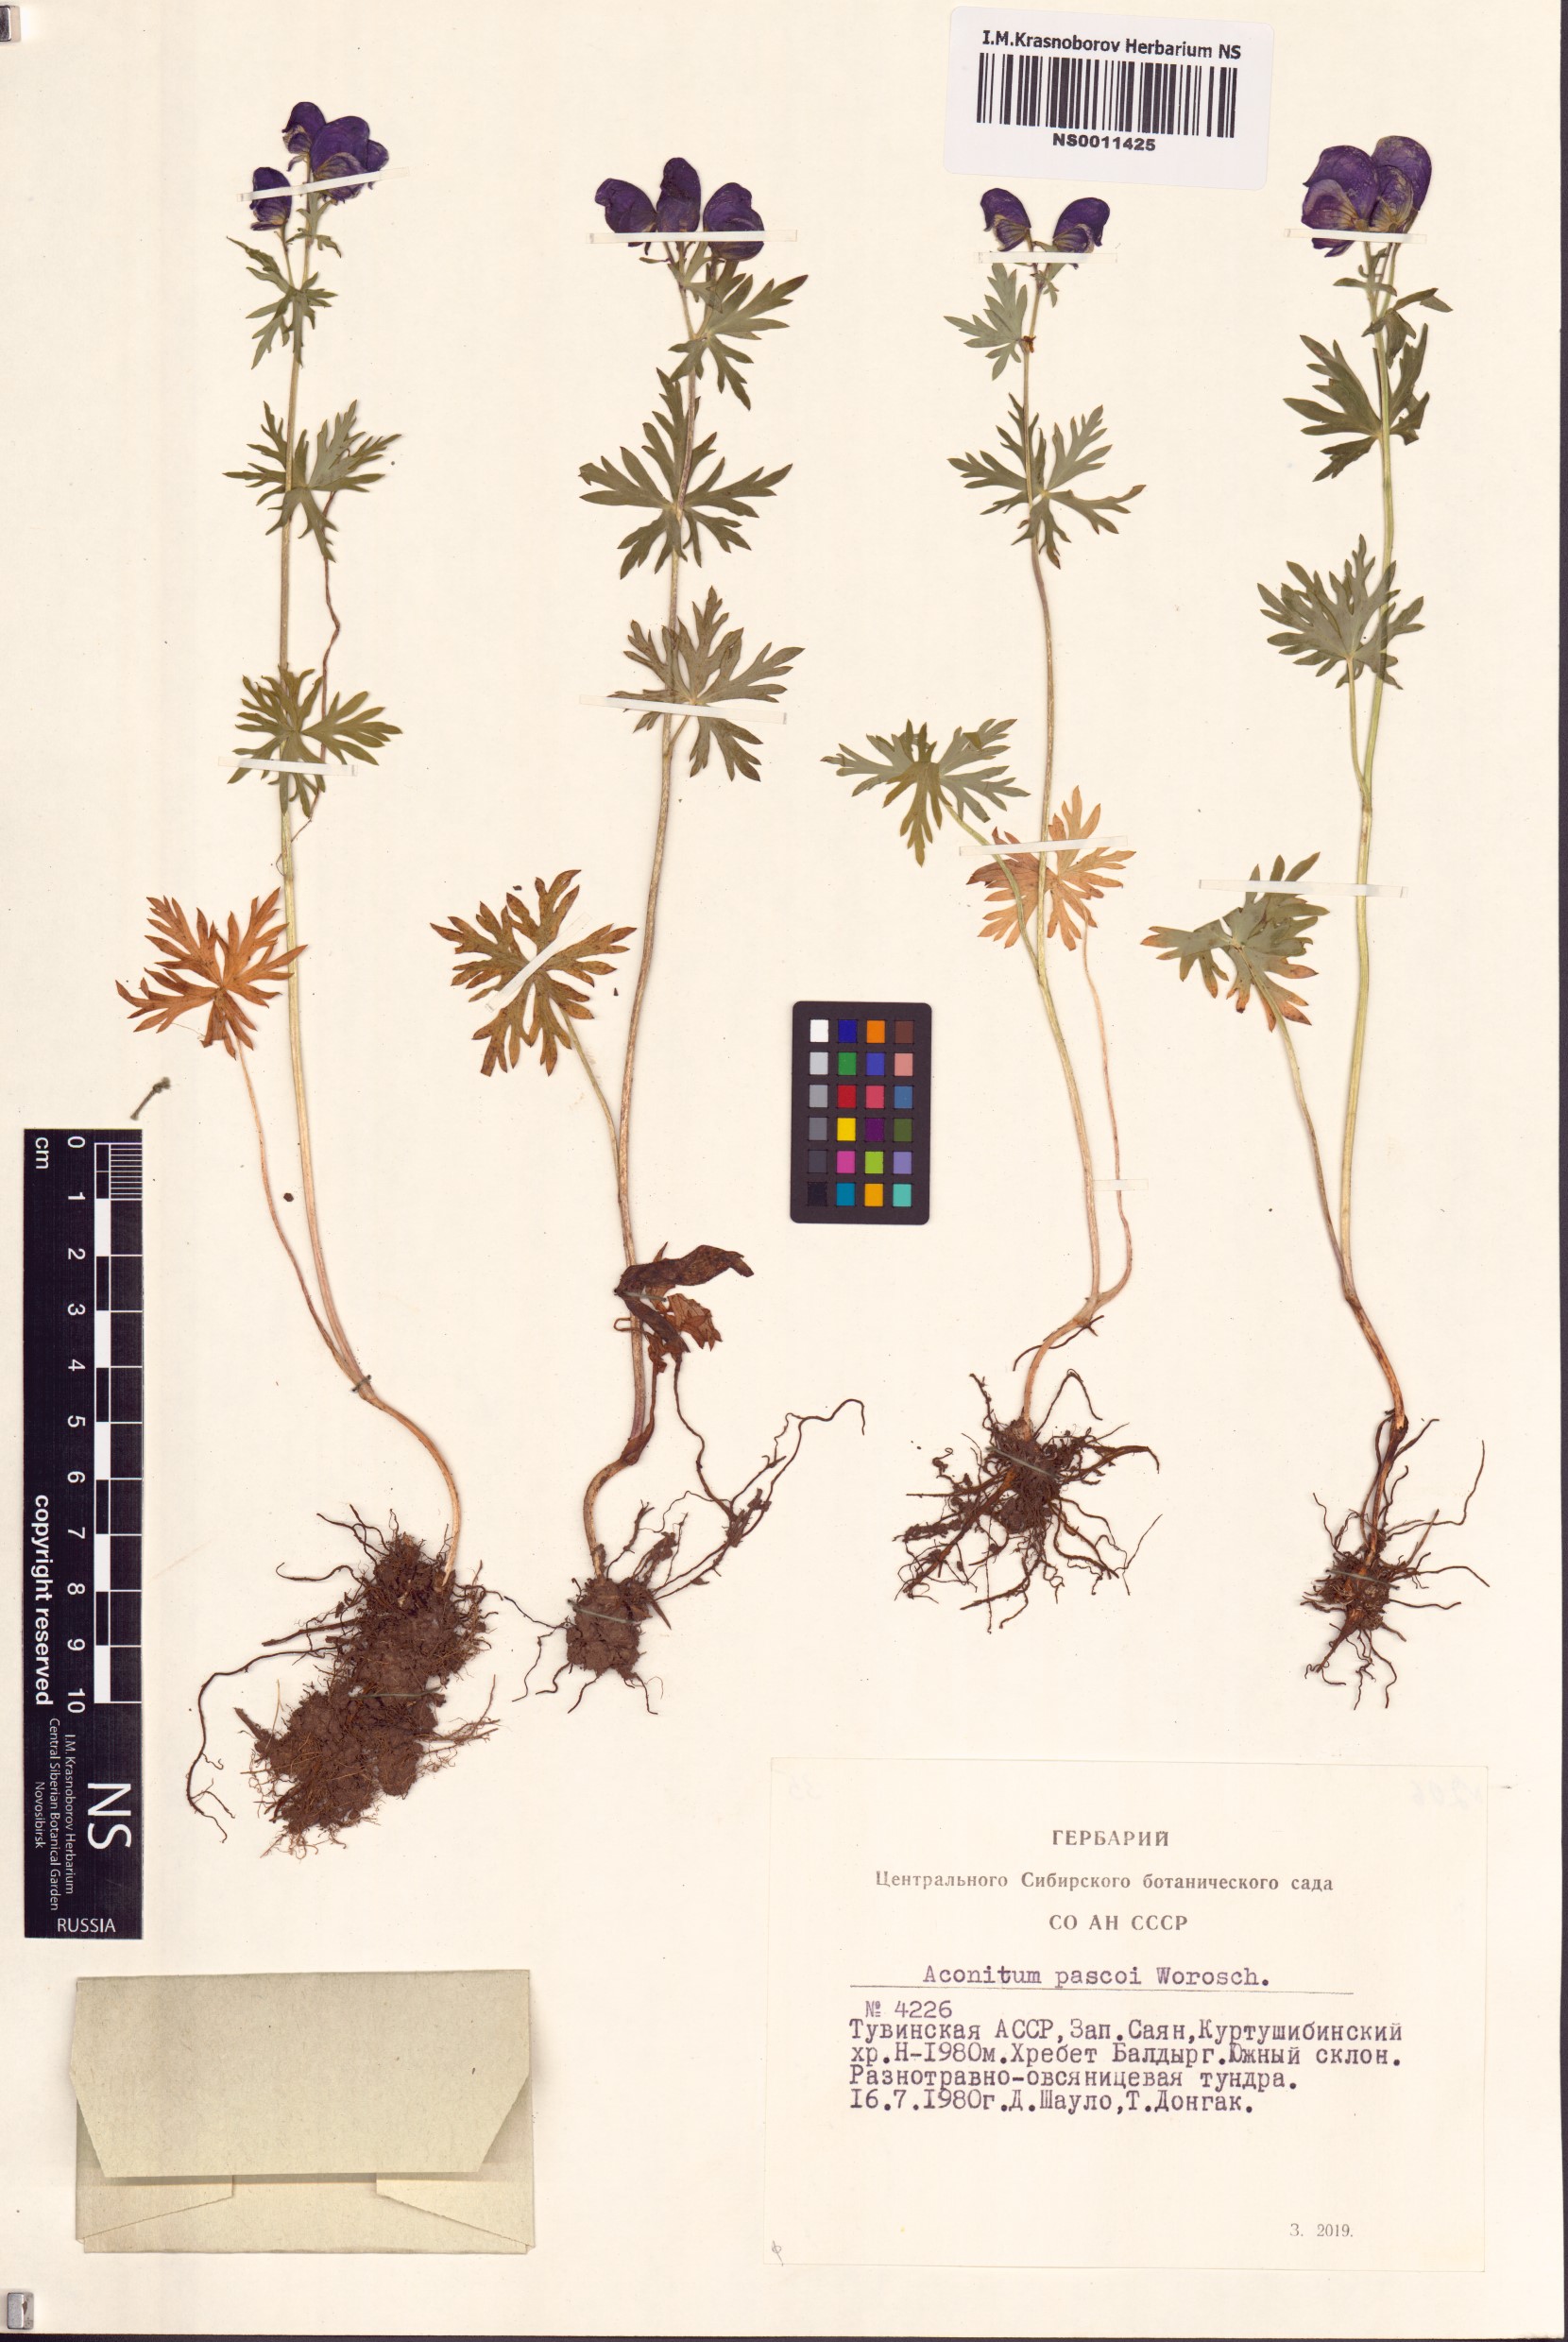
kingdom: Plantae
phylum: Tracheophyta
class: Magnoliopsida
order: Ranunculales
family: Ranunculaceae
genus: Aconitum
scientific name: Aconitum pascoi
